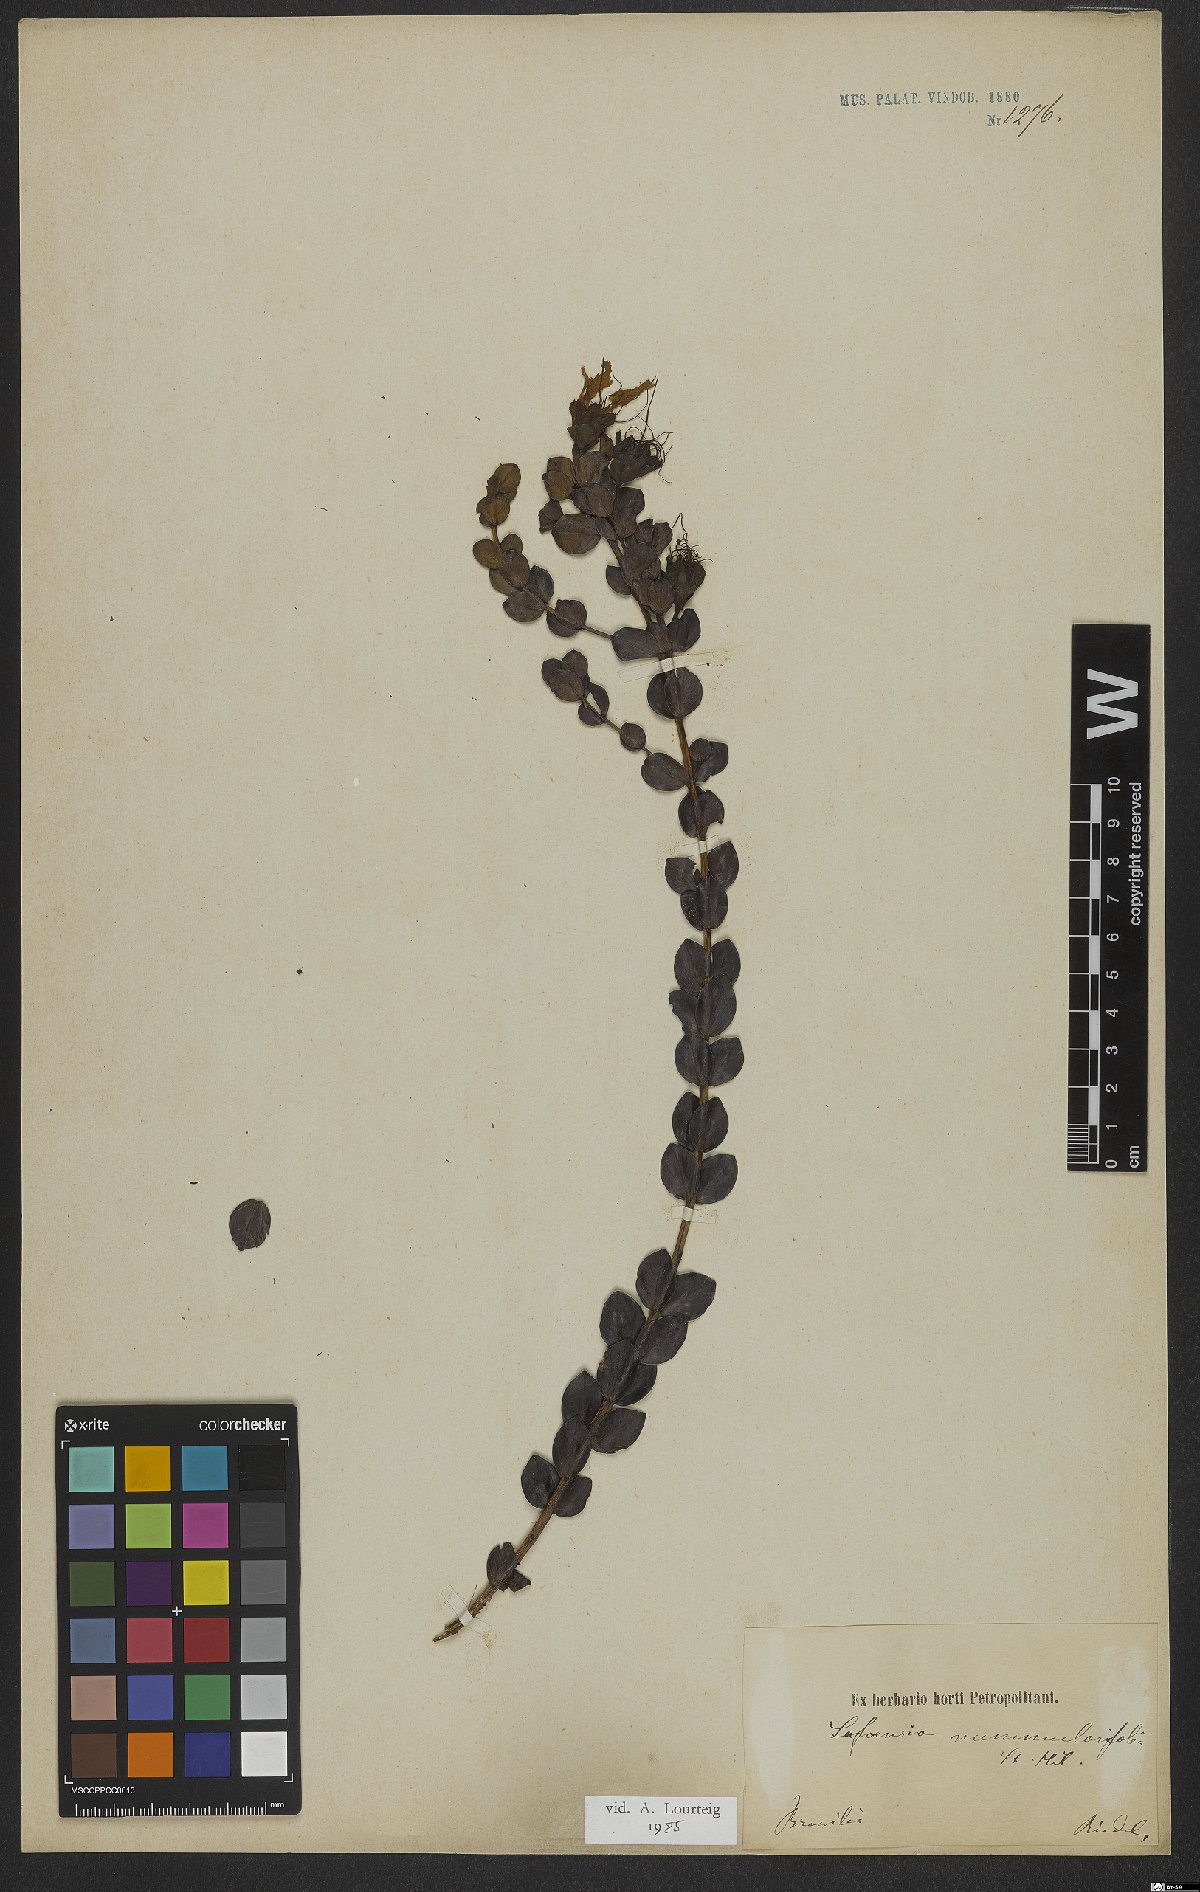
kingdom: Plantae
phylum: Tracheophyta
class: Magnoliopsida
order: Myrtales
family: Lythraceae
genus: Lafoensia
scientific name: Lafoensia nummularifolia
